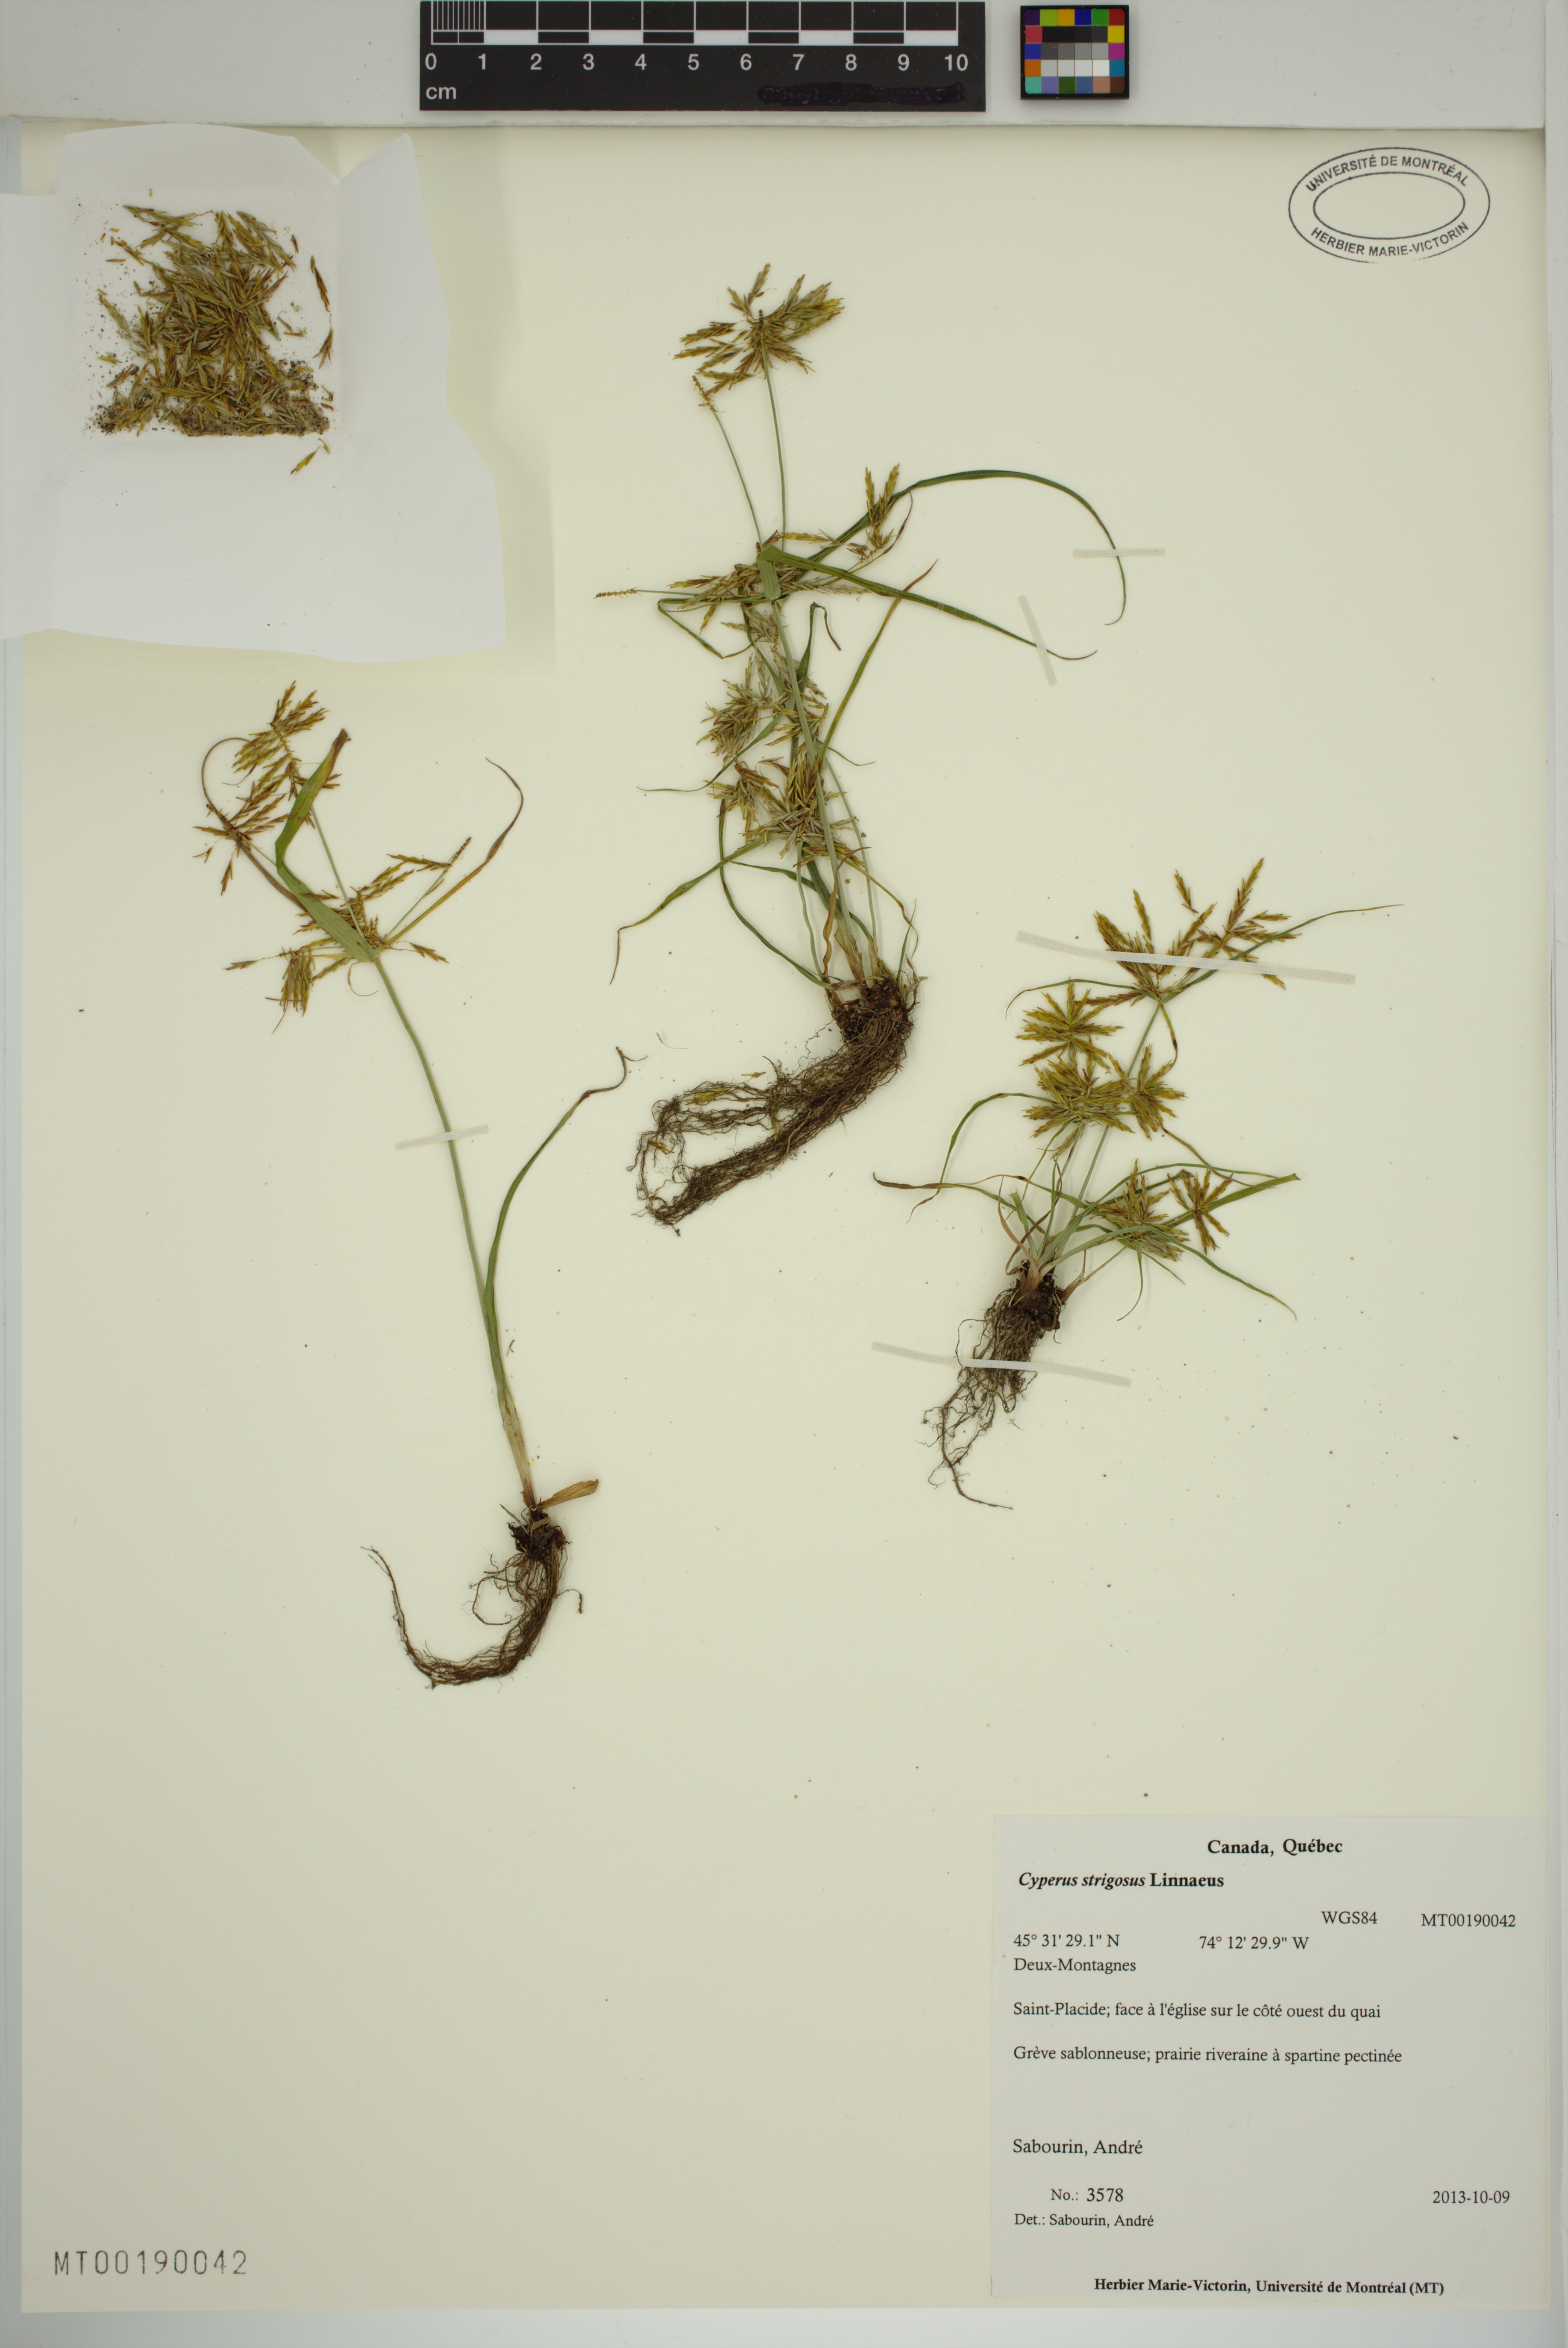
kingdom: Plantae
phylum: Tracheophyta
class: Liliopsida
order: Poales
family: Cyperaceae
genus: Cyperus
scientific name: Cyperus strigosus
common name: False nutsedge
